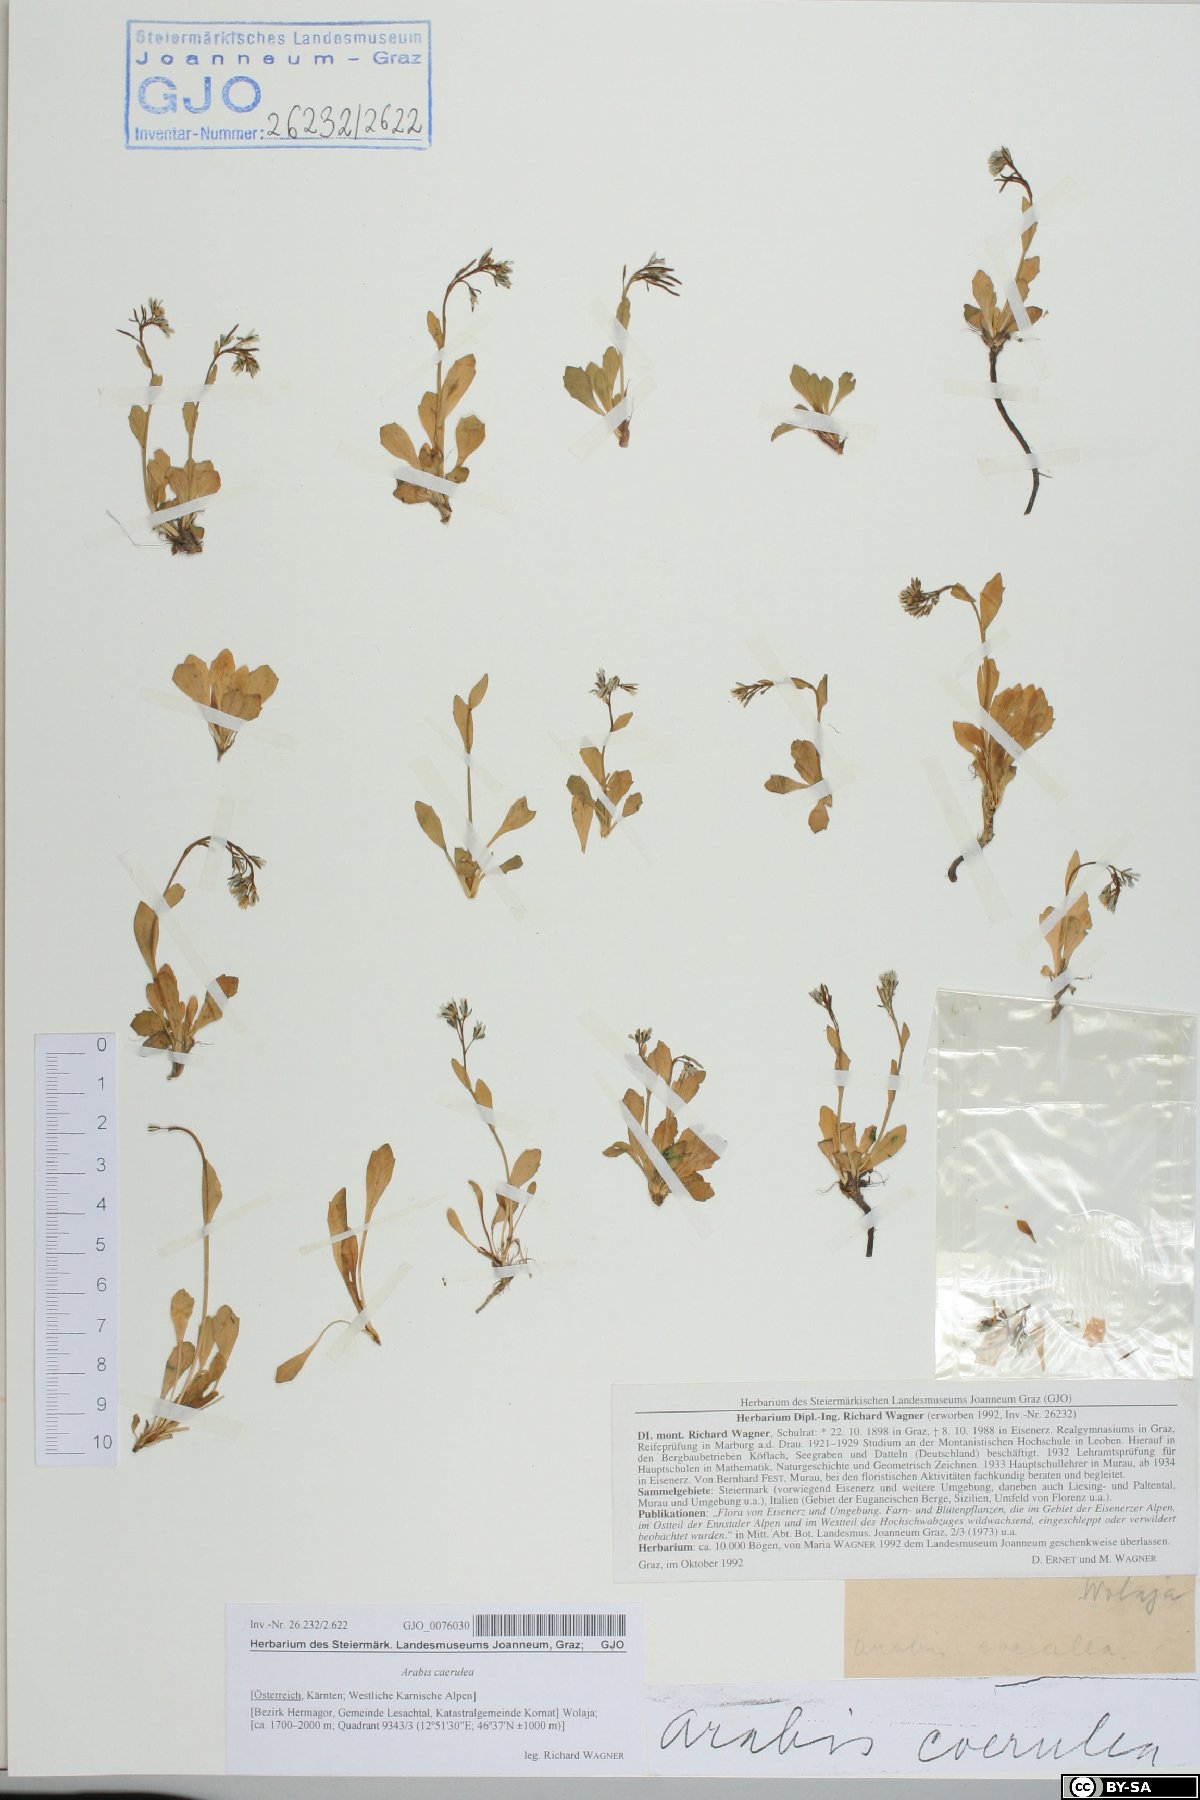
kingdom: Plantae
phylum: Tracheophyta
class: Magnoliopsida
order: Brassicales
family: Brassicaceae
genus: Arabis
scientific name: Arabis caerulea
